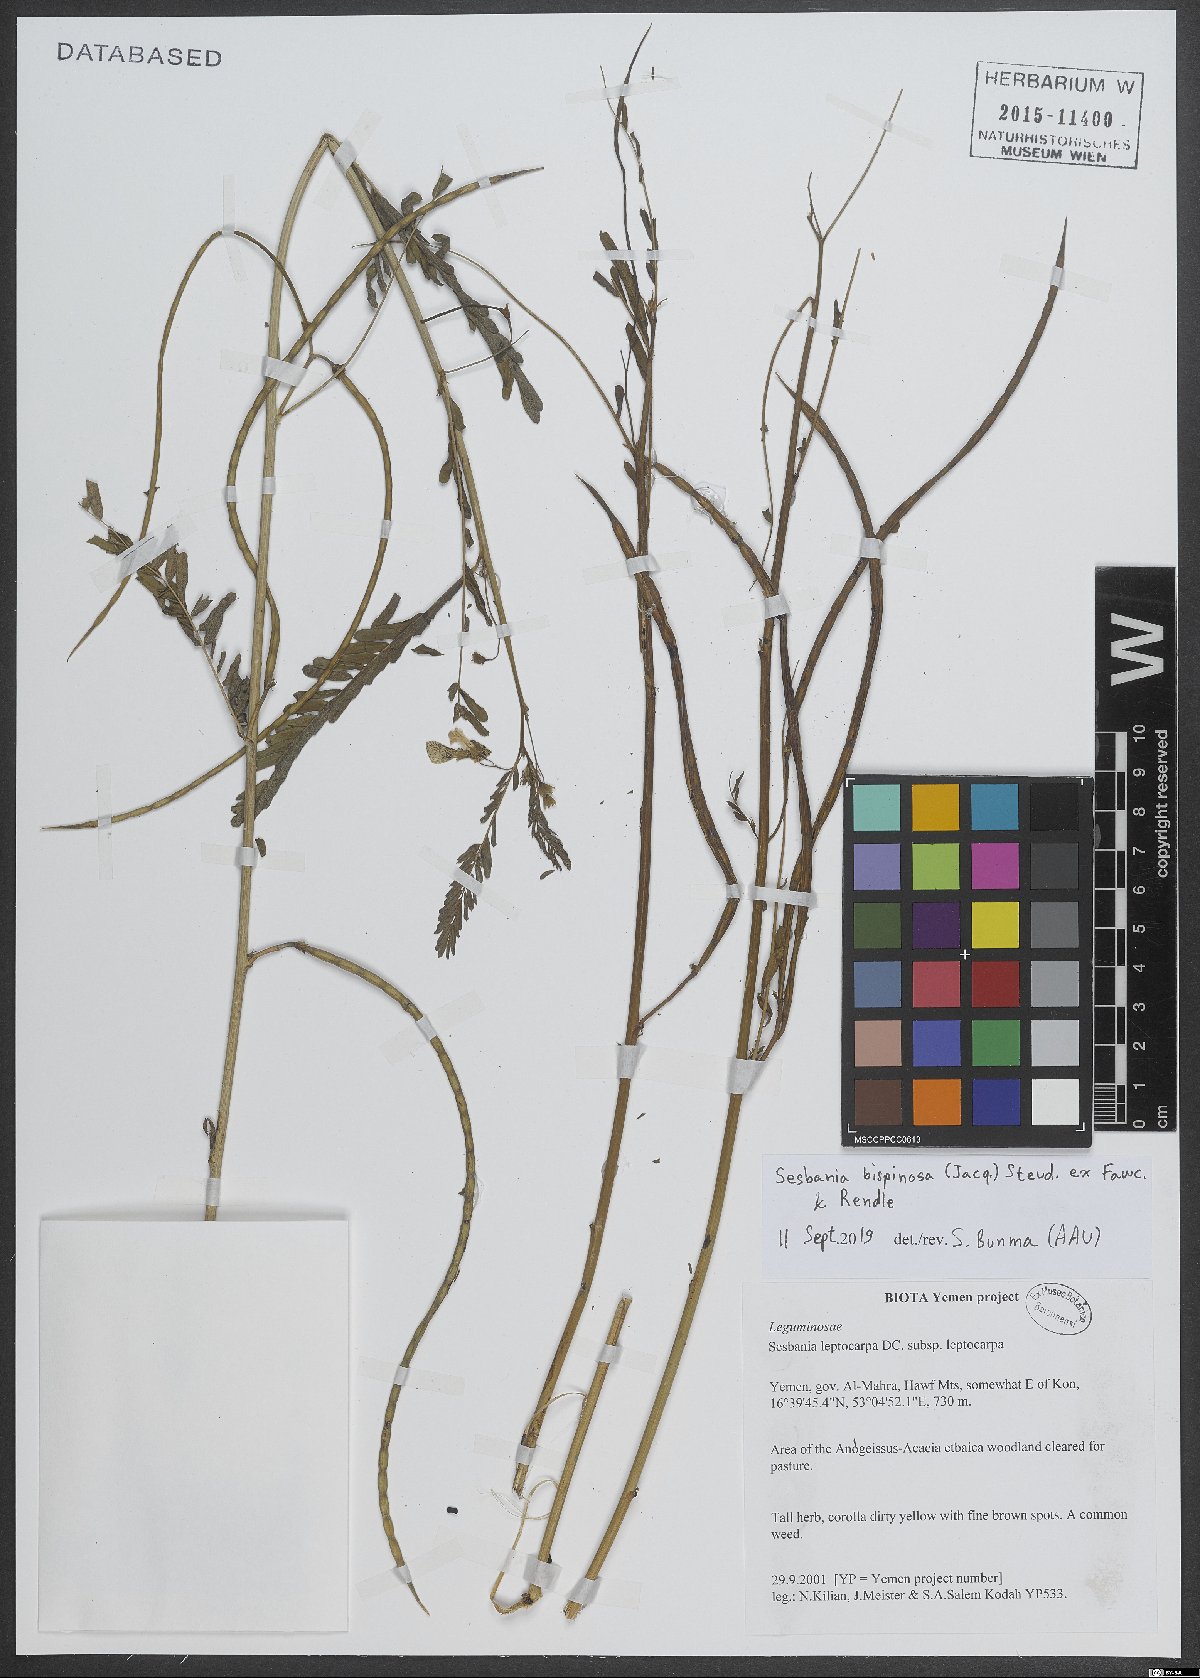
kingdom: Plantae
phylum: Tracheophyta
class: Magnoliopsida
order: Fabales
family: Fabaceae
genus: Sesbania
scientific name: Sesbania bispinosa
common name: Sesbania pea
